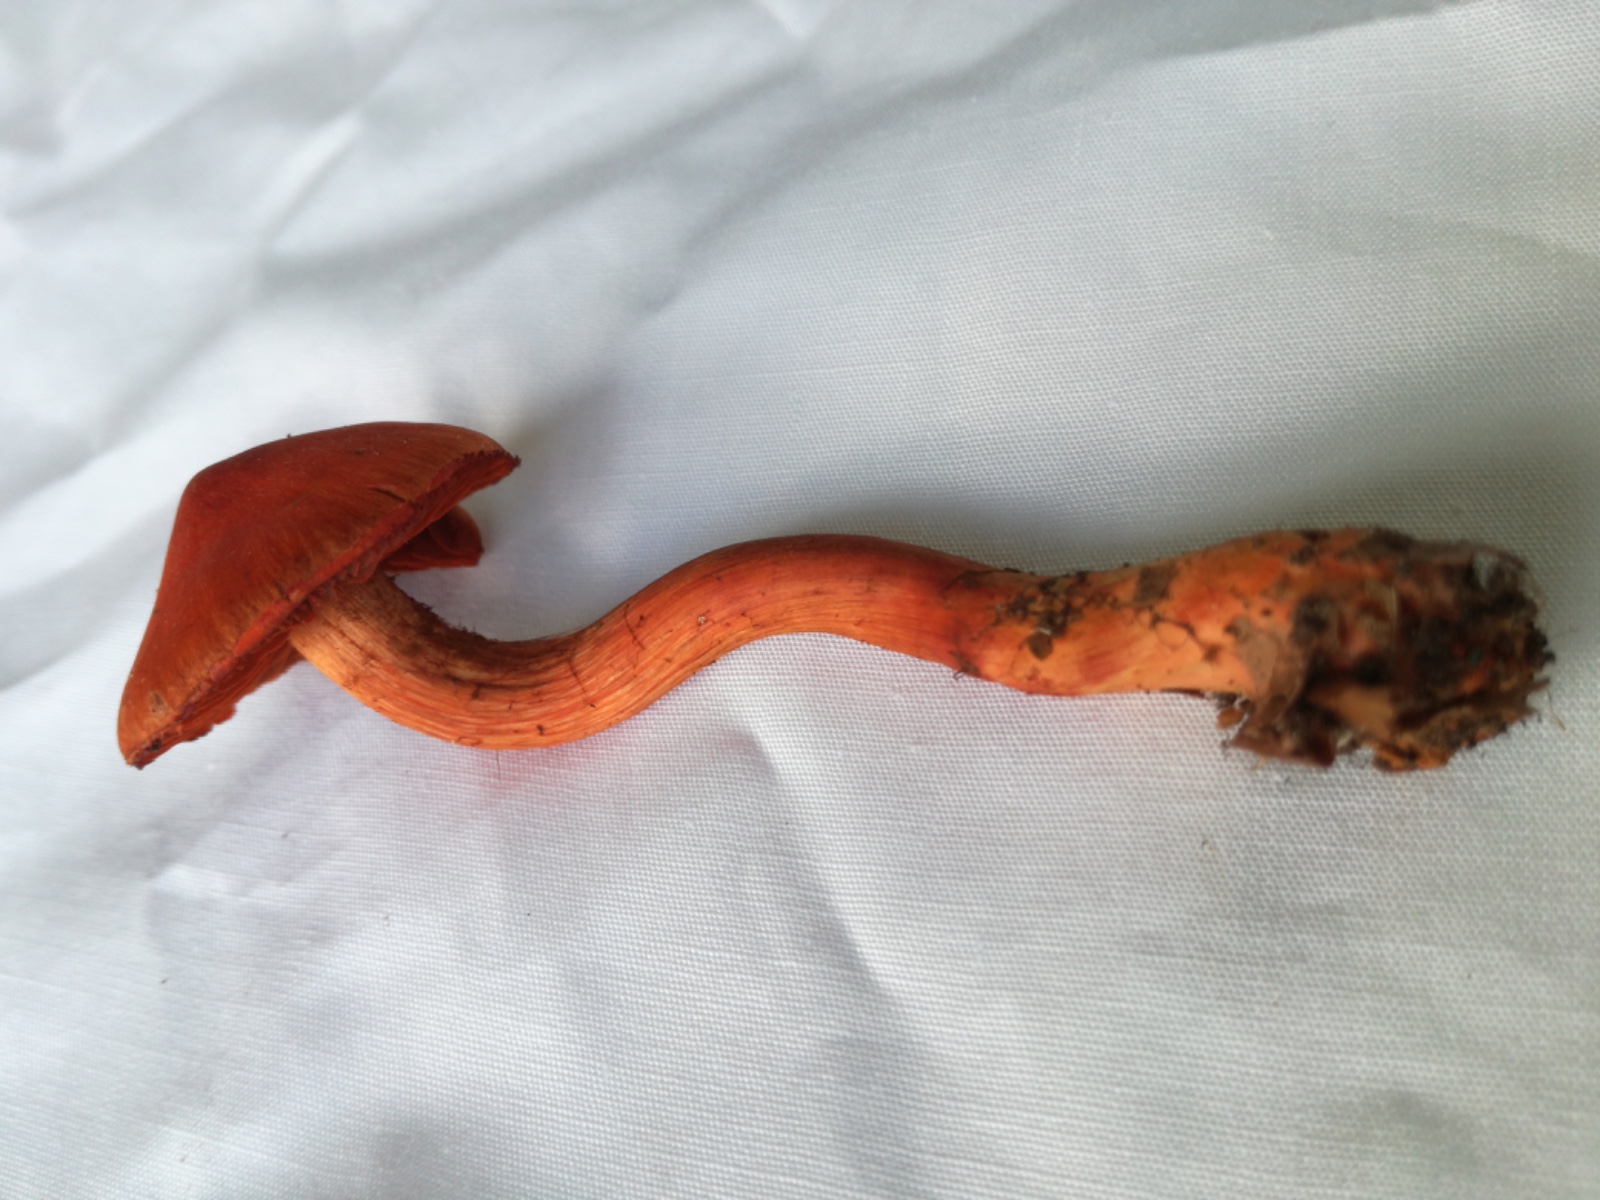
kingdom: Fungi
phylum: Basidiomycota
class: Agaricomycetes
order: Agaricales
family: Cortinariaceae
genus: Cortinarius
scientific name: Cortinarius cinnabarinus
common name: cinnober-slørhat
